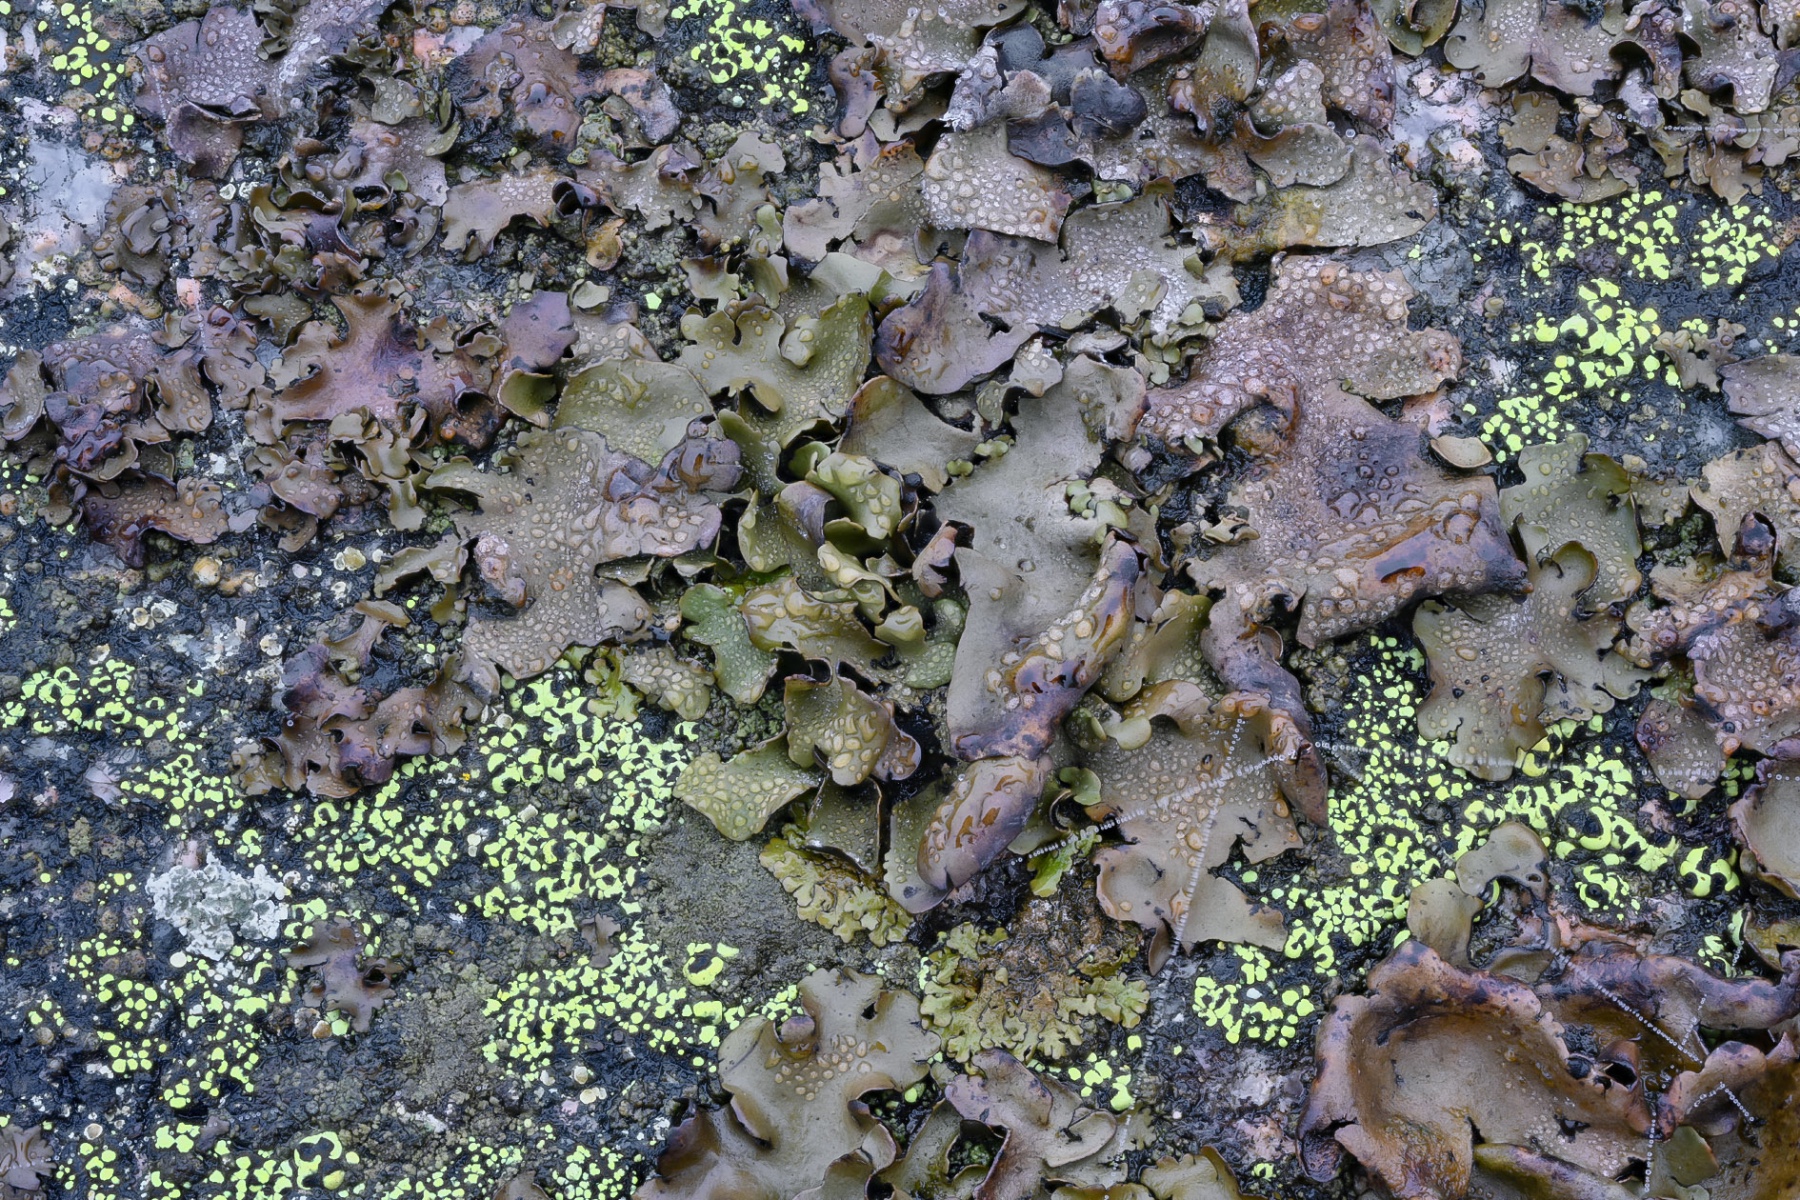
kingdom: Fungi
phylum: Ascomycota
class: Lecanoromycetes
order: Umbilicariales
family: Umbilicariaceae
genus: Umbilicaria
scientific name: Umbilicaria polyphylla
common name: glat navlelav
